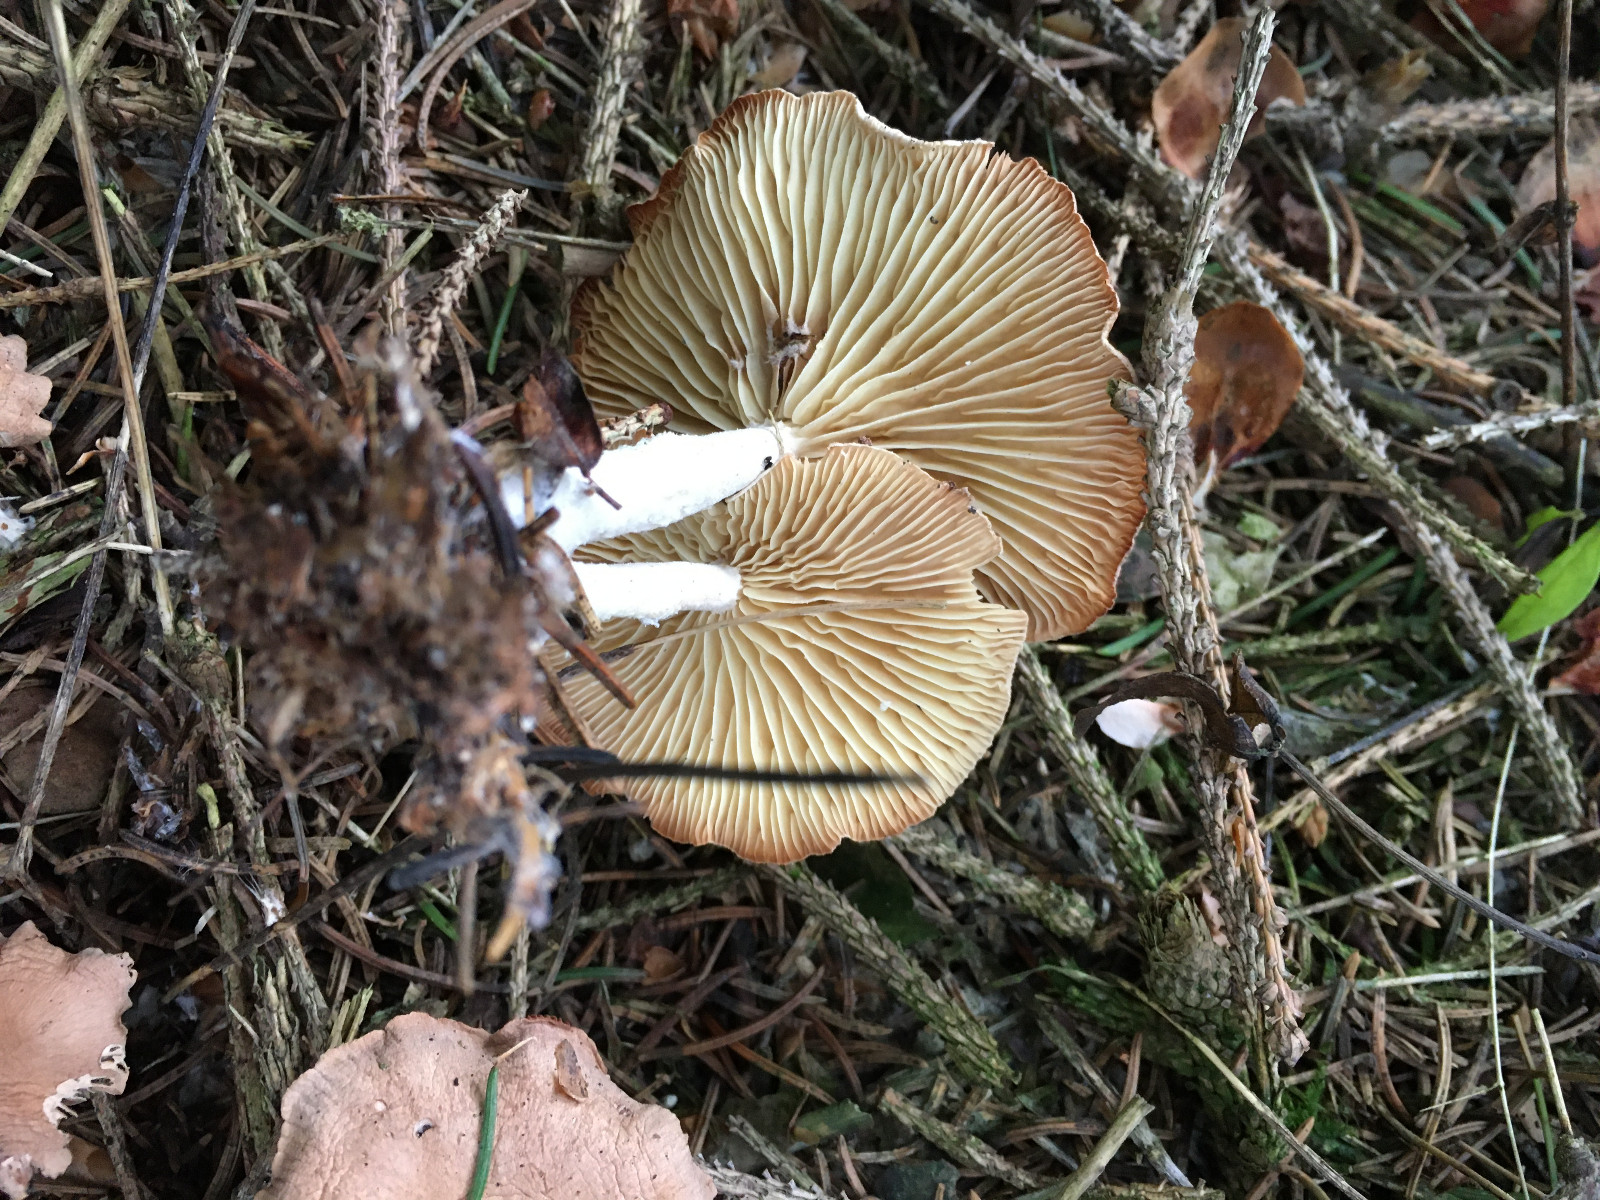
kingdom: Fungi
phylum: Basidiomycota
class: Agaricomycetes
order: Agaricales
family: Omphalotaceae
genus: Collybiopsis
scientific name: Collybiopsis peronata
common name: bestøvlet fladhat
